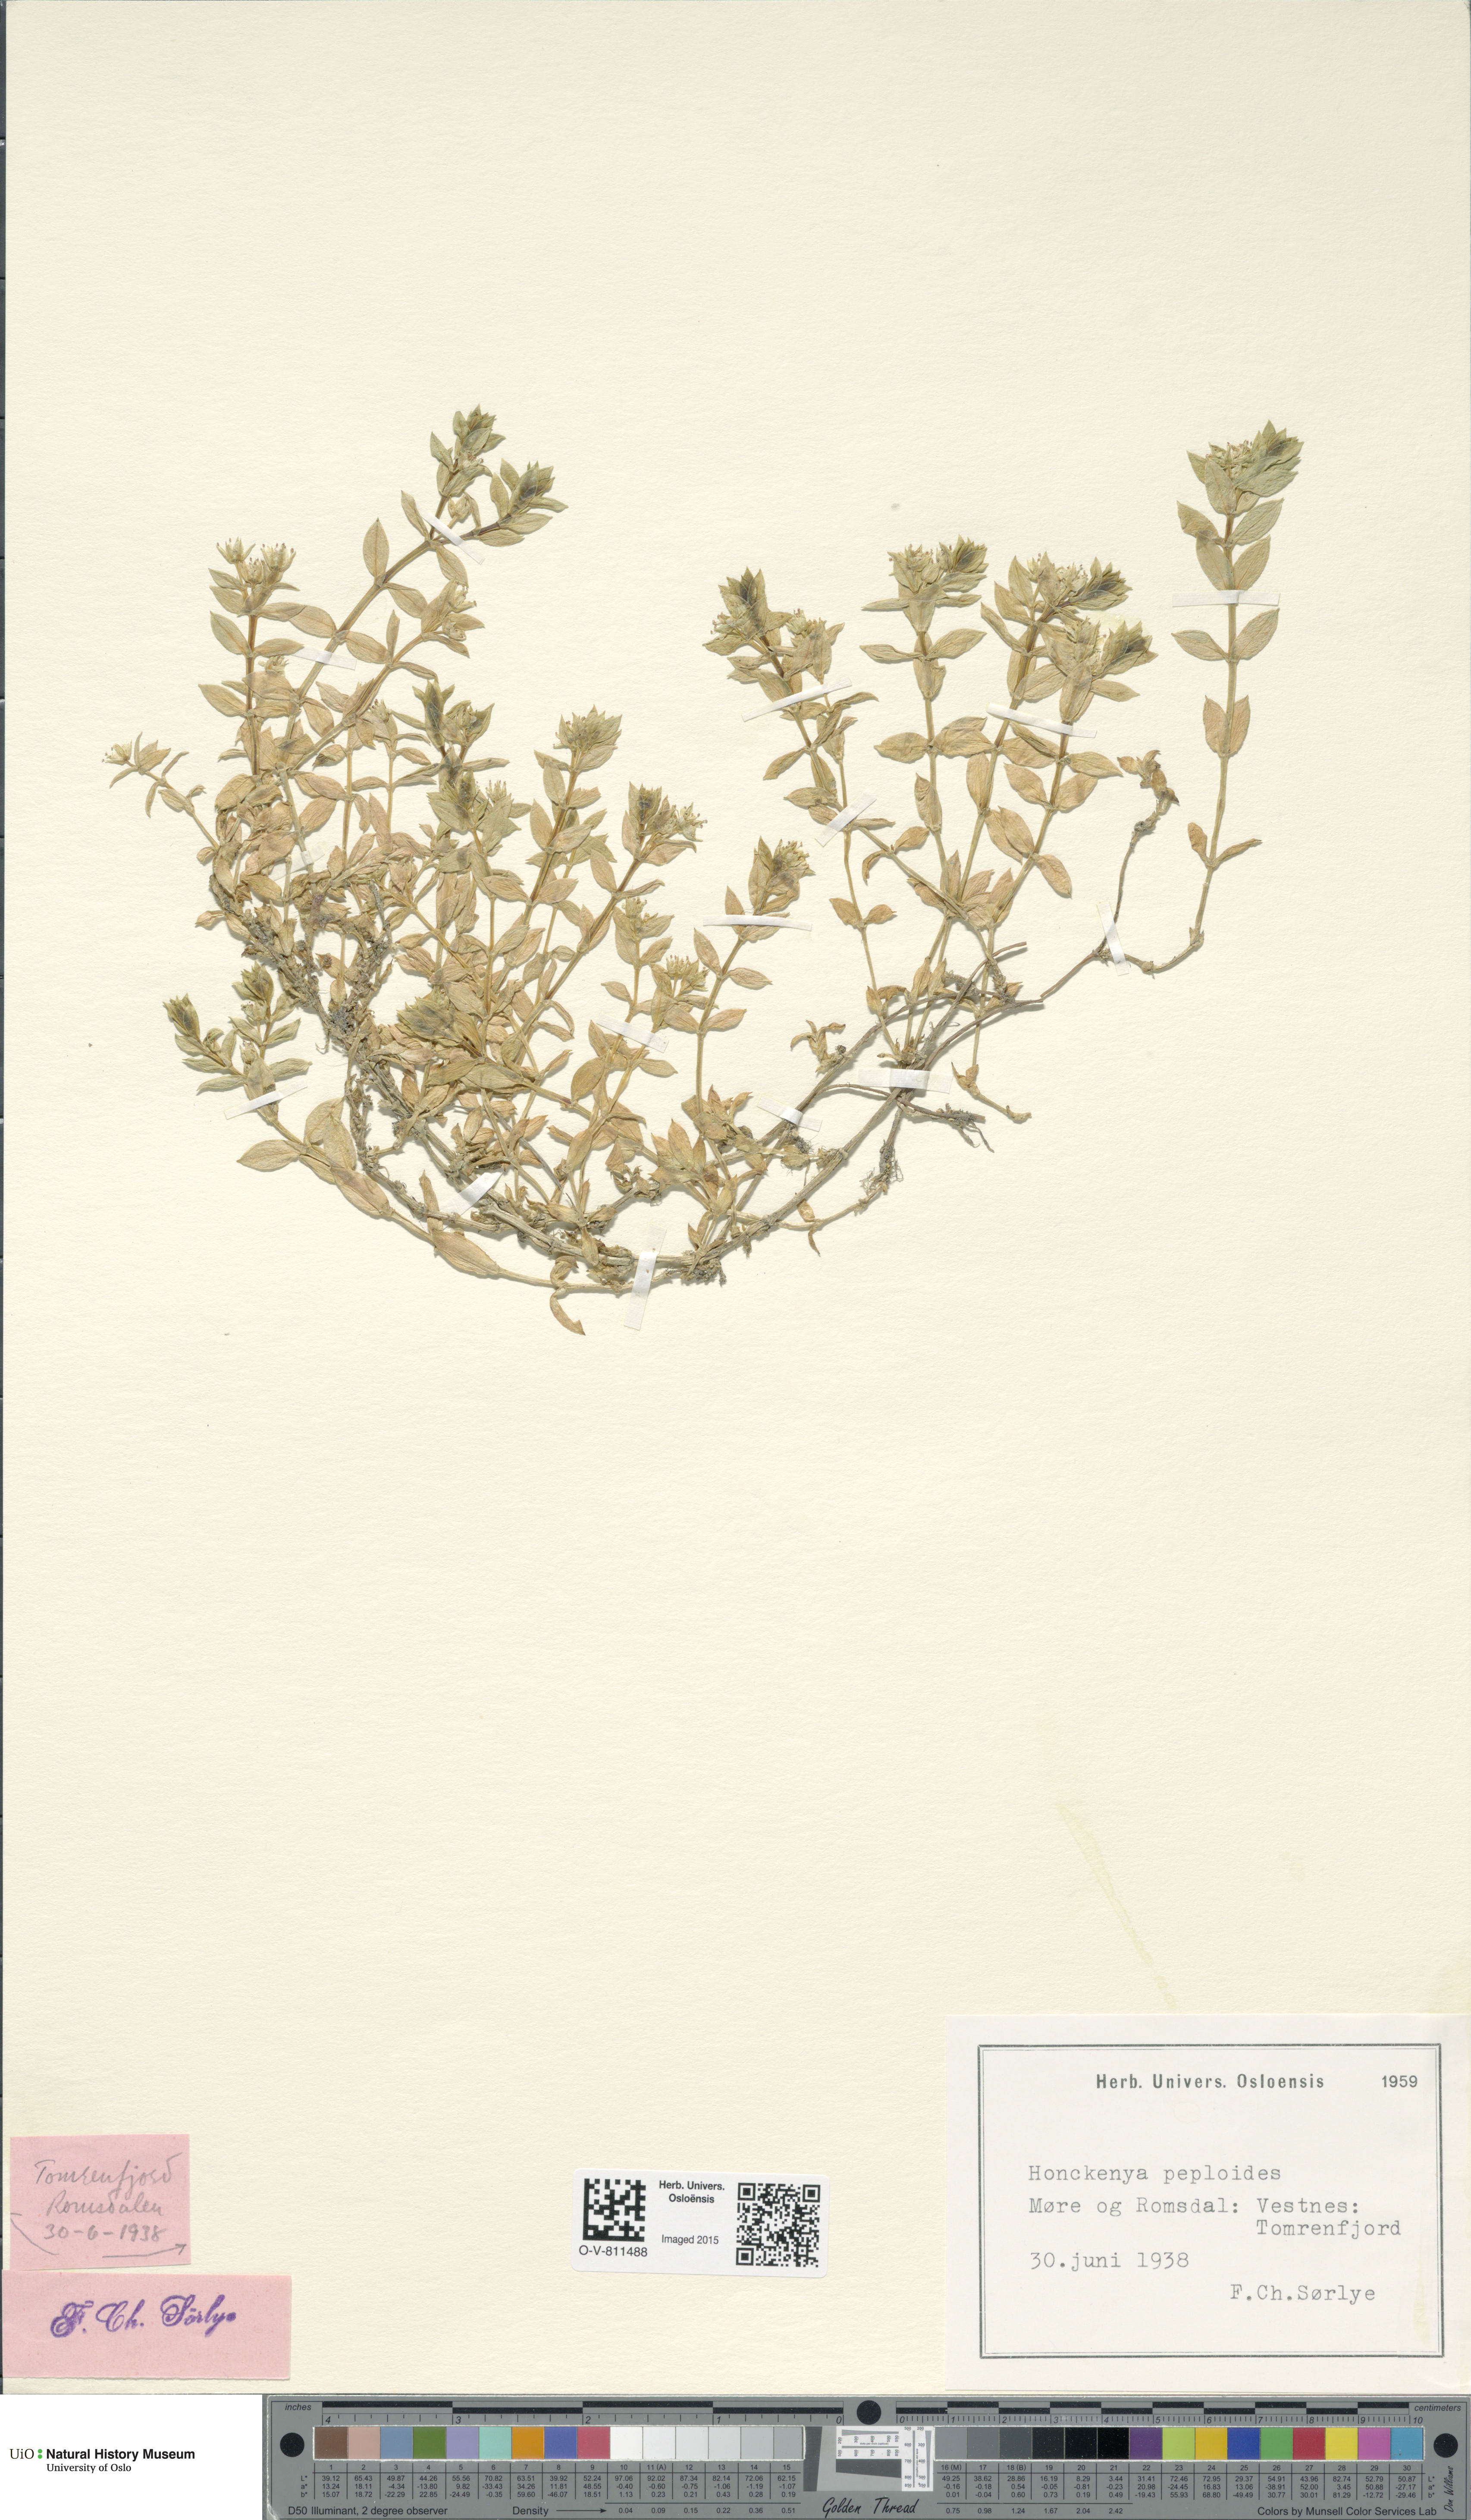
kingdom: Plantae
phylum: Tracheophyta
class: Magnoliopsida
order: Caryophyllales
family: Caryophyllaceae
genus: Honckenya
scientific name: Honckenya peploides
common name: Sea sandwort
